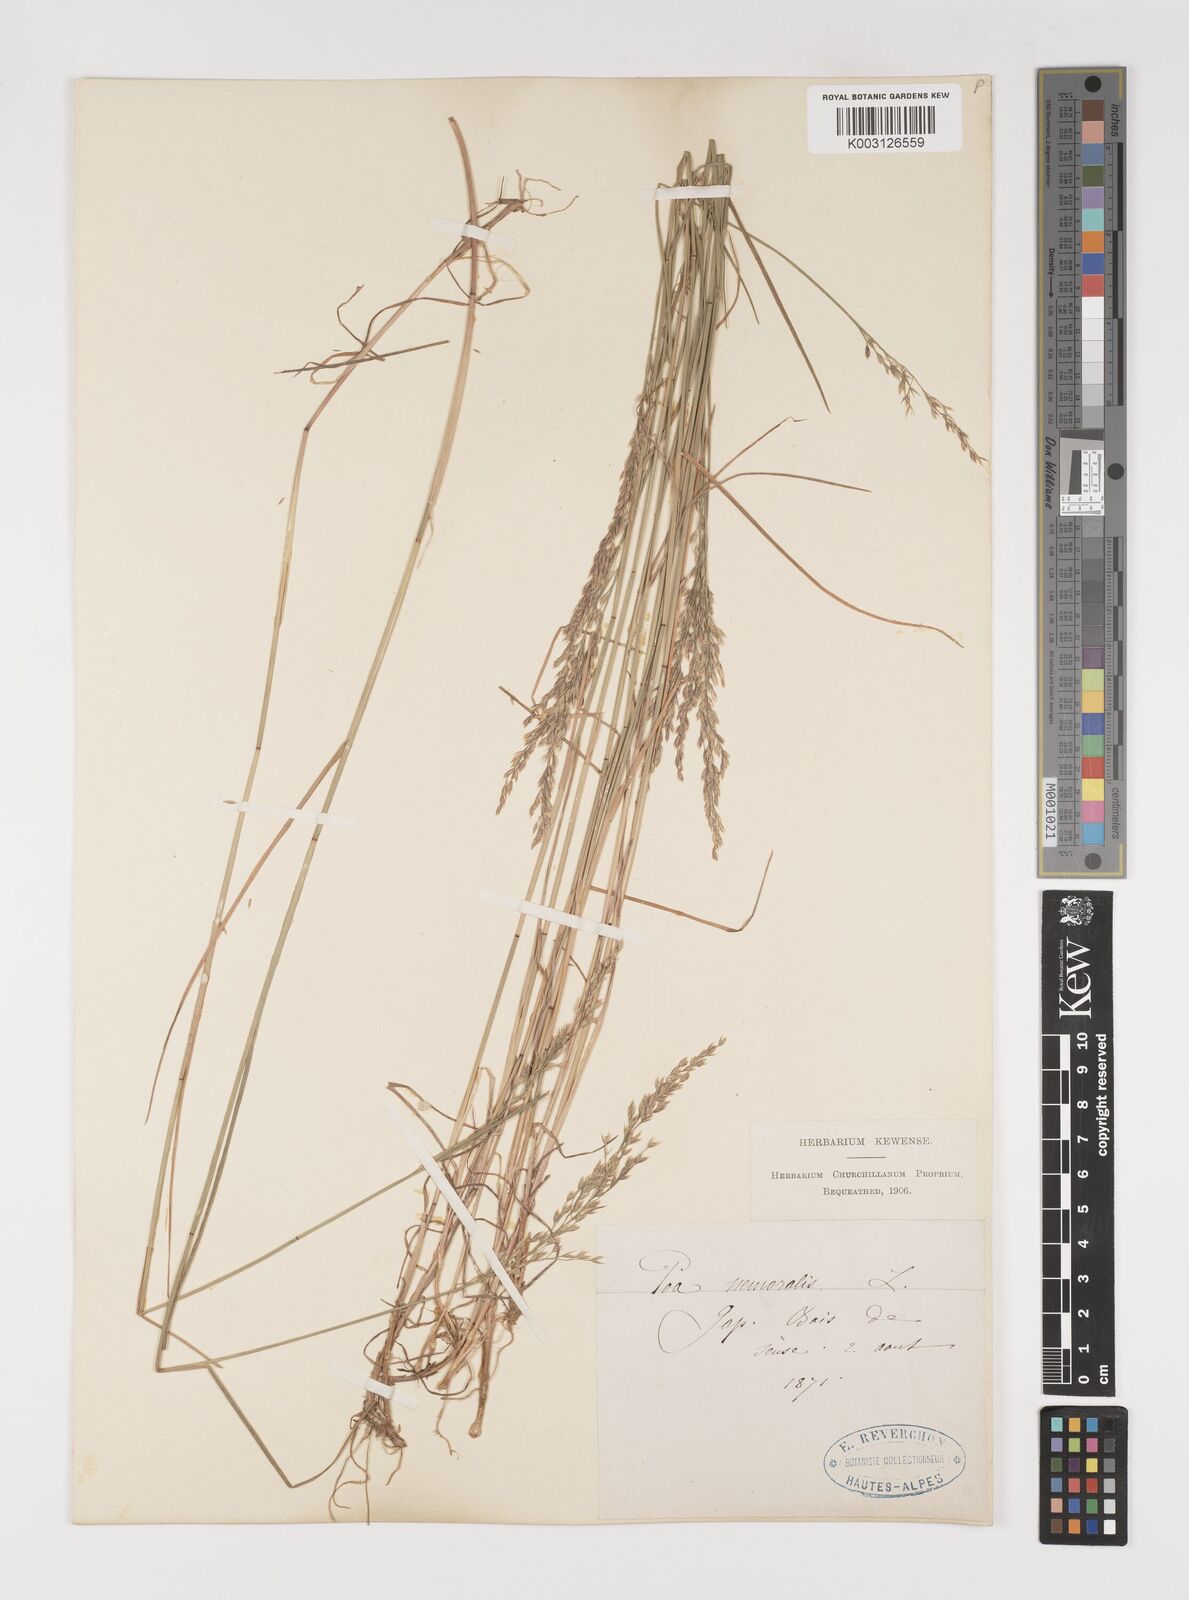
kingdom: Plantae
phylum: Tracheophyta
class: Liliopsida
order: Poales
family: Poaceae
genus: Poa
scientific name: Poa nemoralis
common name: Wood bluegrass
